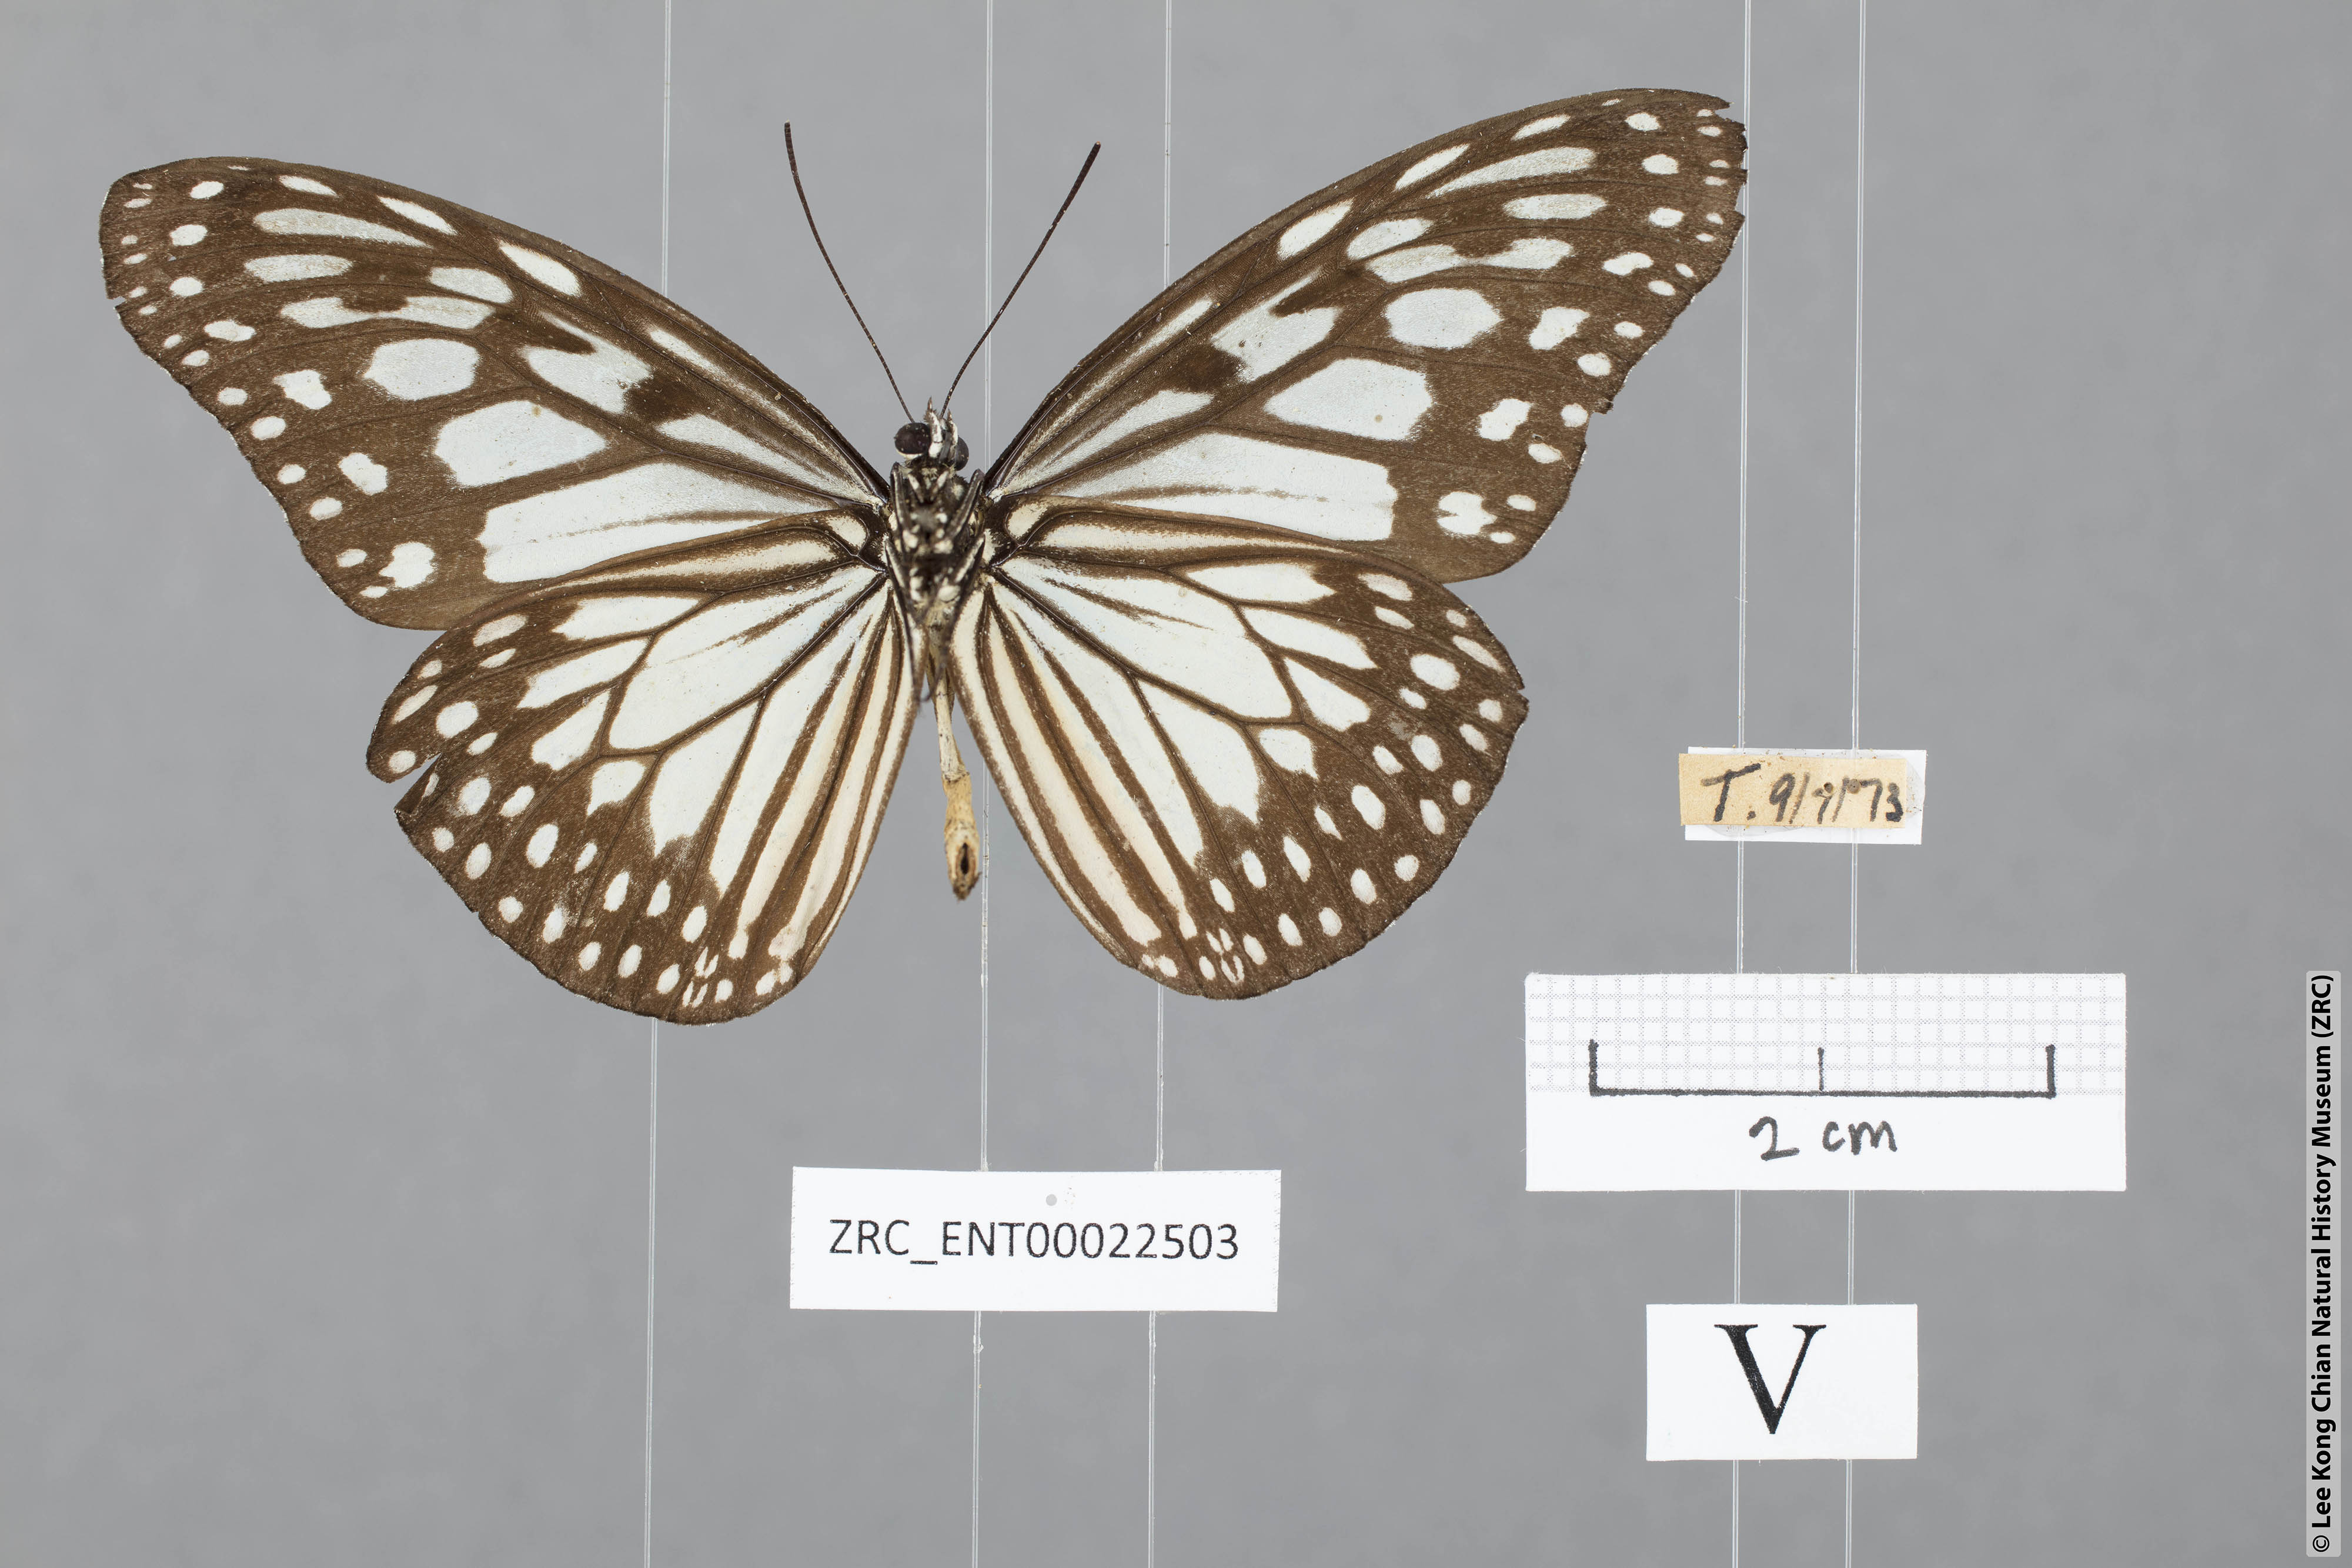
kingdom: Animalia
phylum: Arthropoda
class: Insecta
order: Lepidoptera
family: Nymphalidae
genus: Ideopsis
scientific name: Ideopsis juventa
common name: Grey glassy tiger
